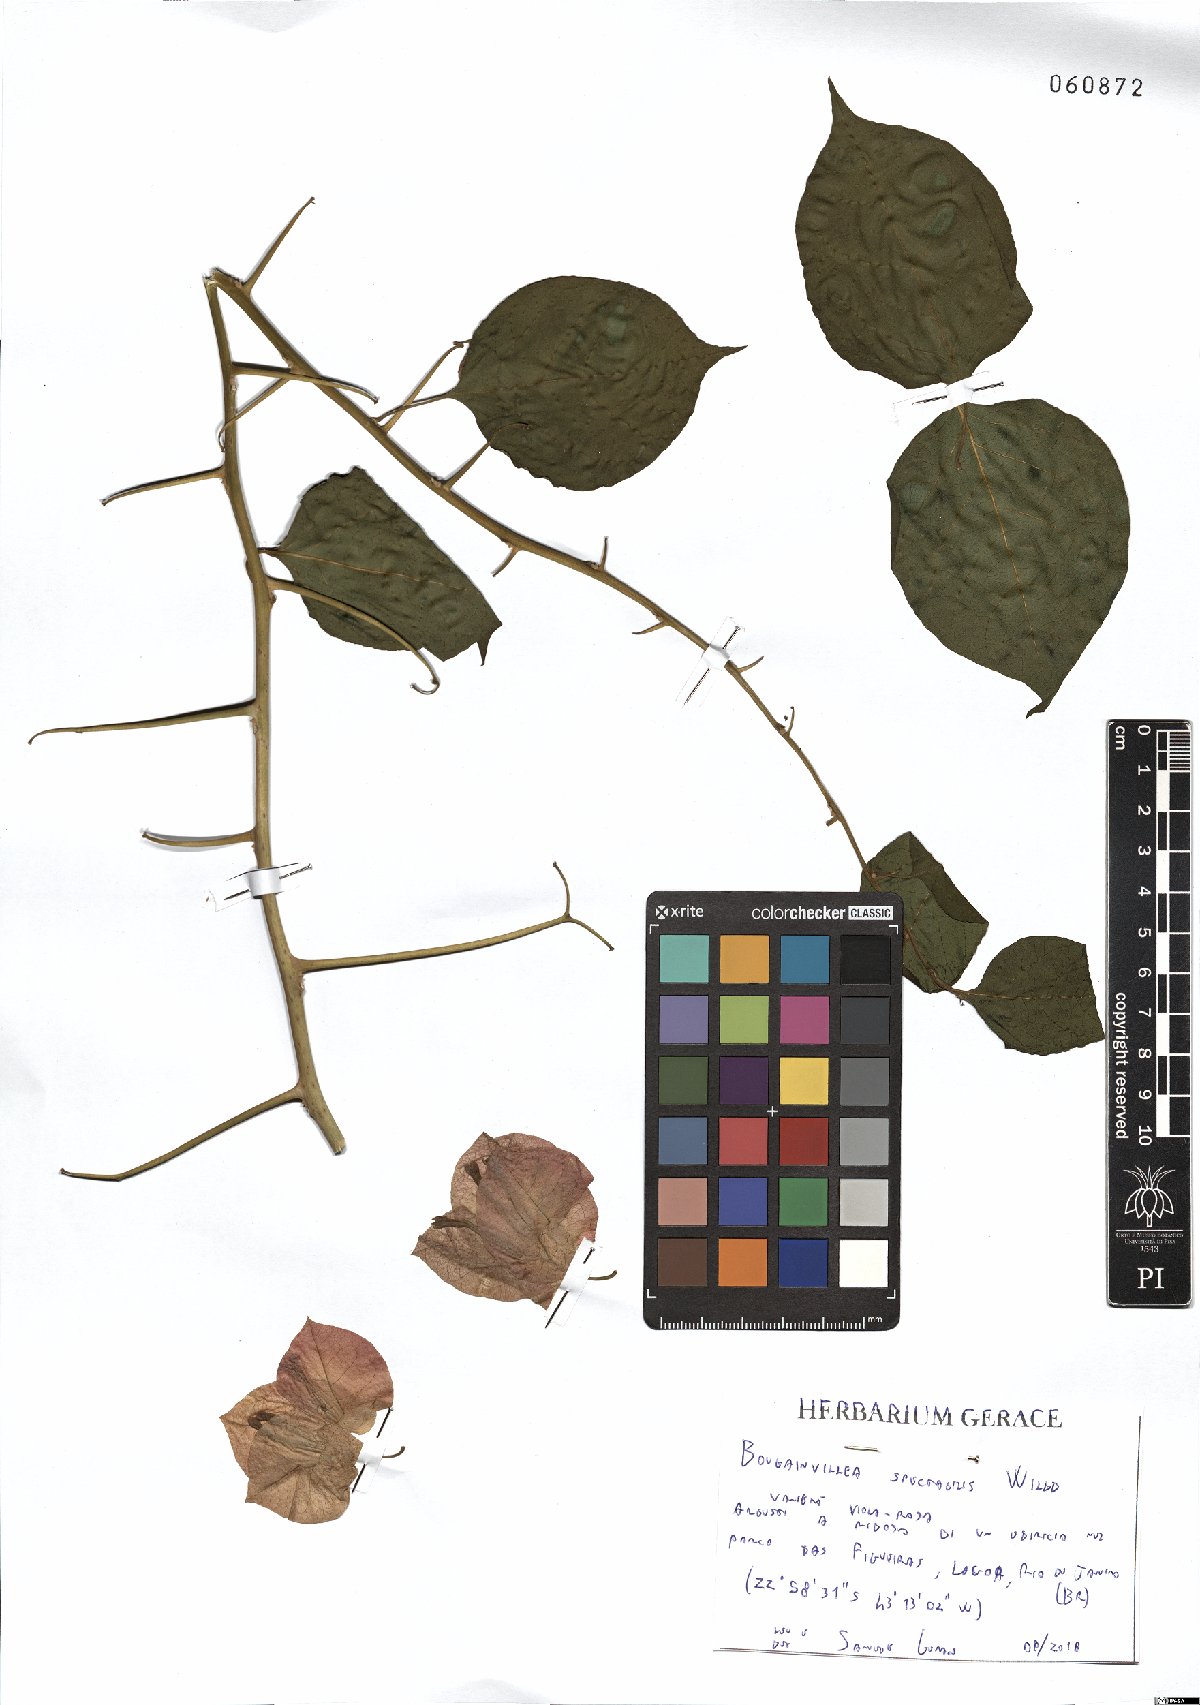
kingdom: Plantae
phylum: Tracheophyta
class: Magnoliopsida
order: Caryophyllales
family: Nyctaginaceae
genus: Bougainvillea
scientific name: Bougainvillea spectabilis
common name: Great bougainvillea
